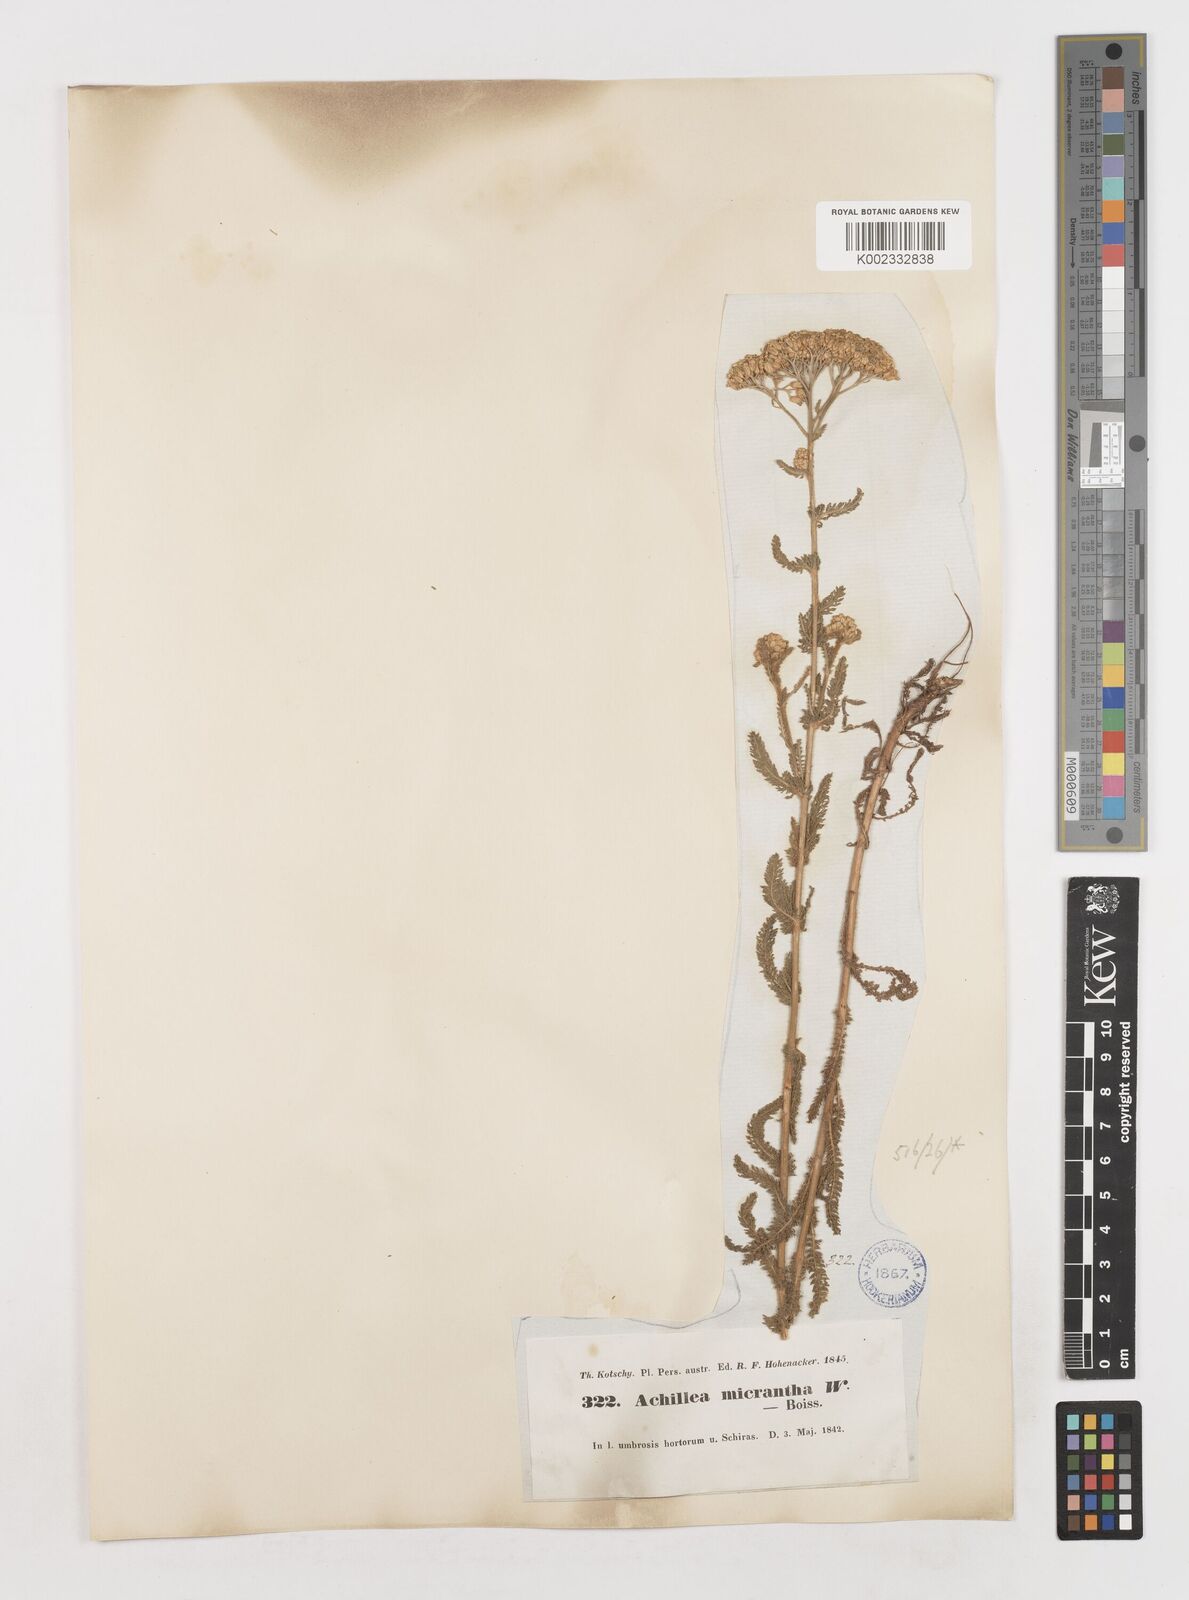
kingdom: Plantae
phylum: Tracheophyta
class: Magnoliopsida
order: Asterales
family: Asteraceae
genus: Achillea
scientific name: Achillea micrantha
